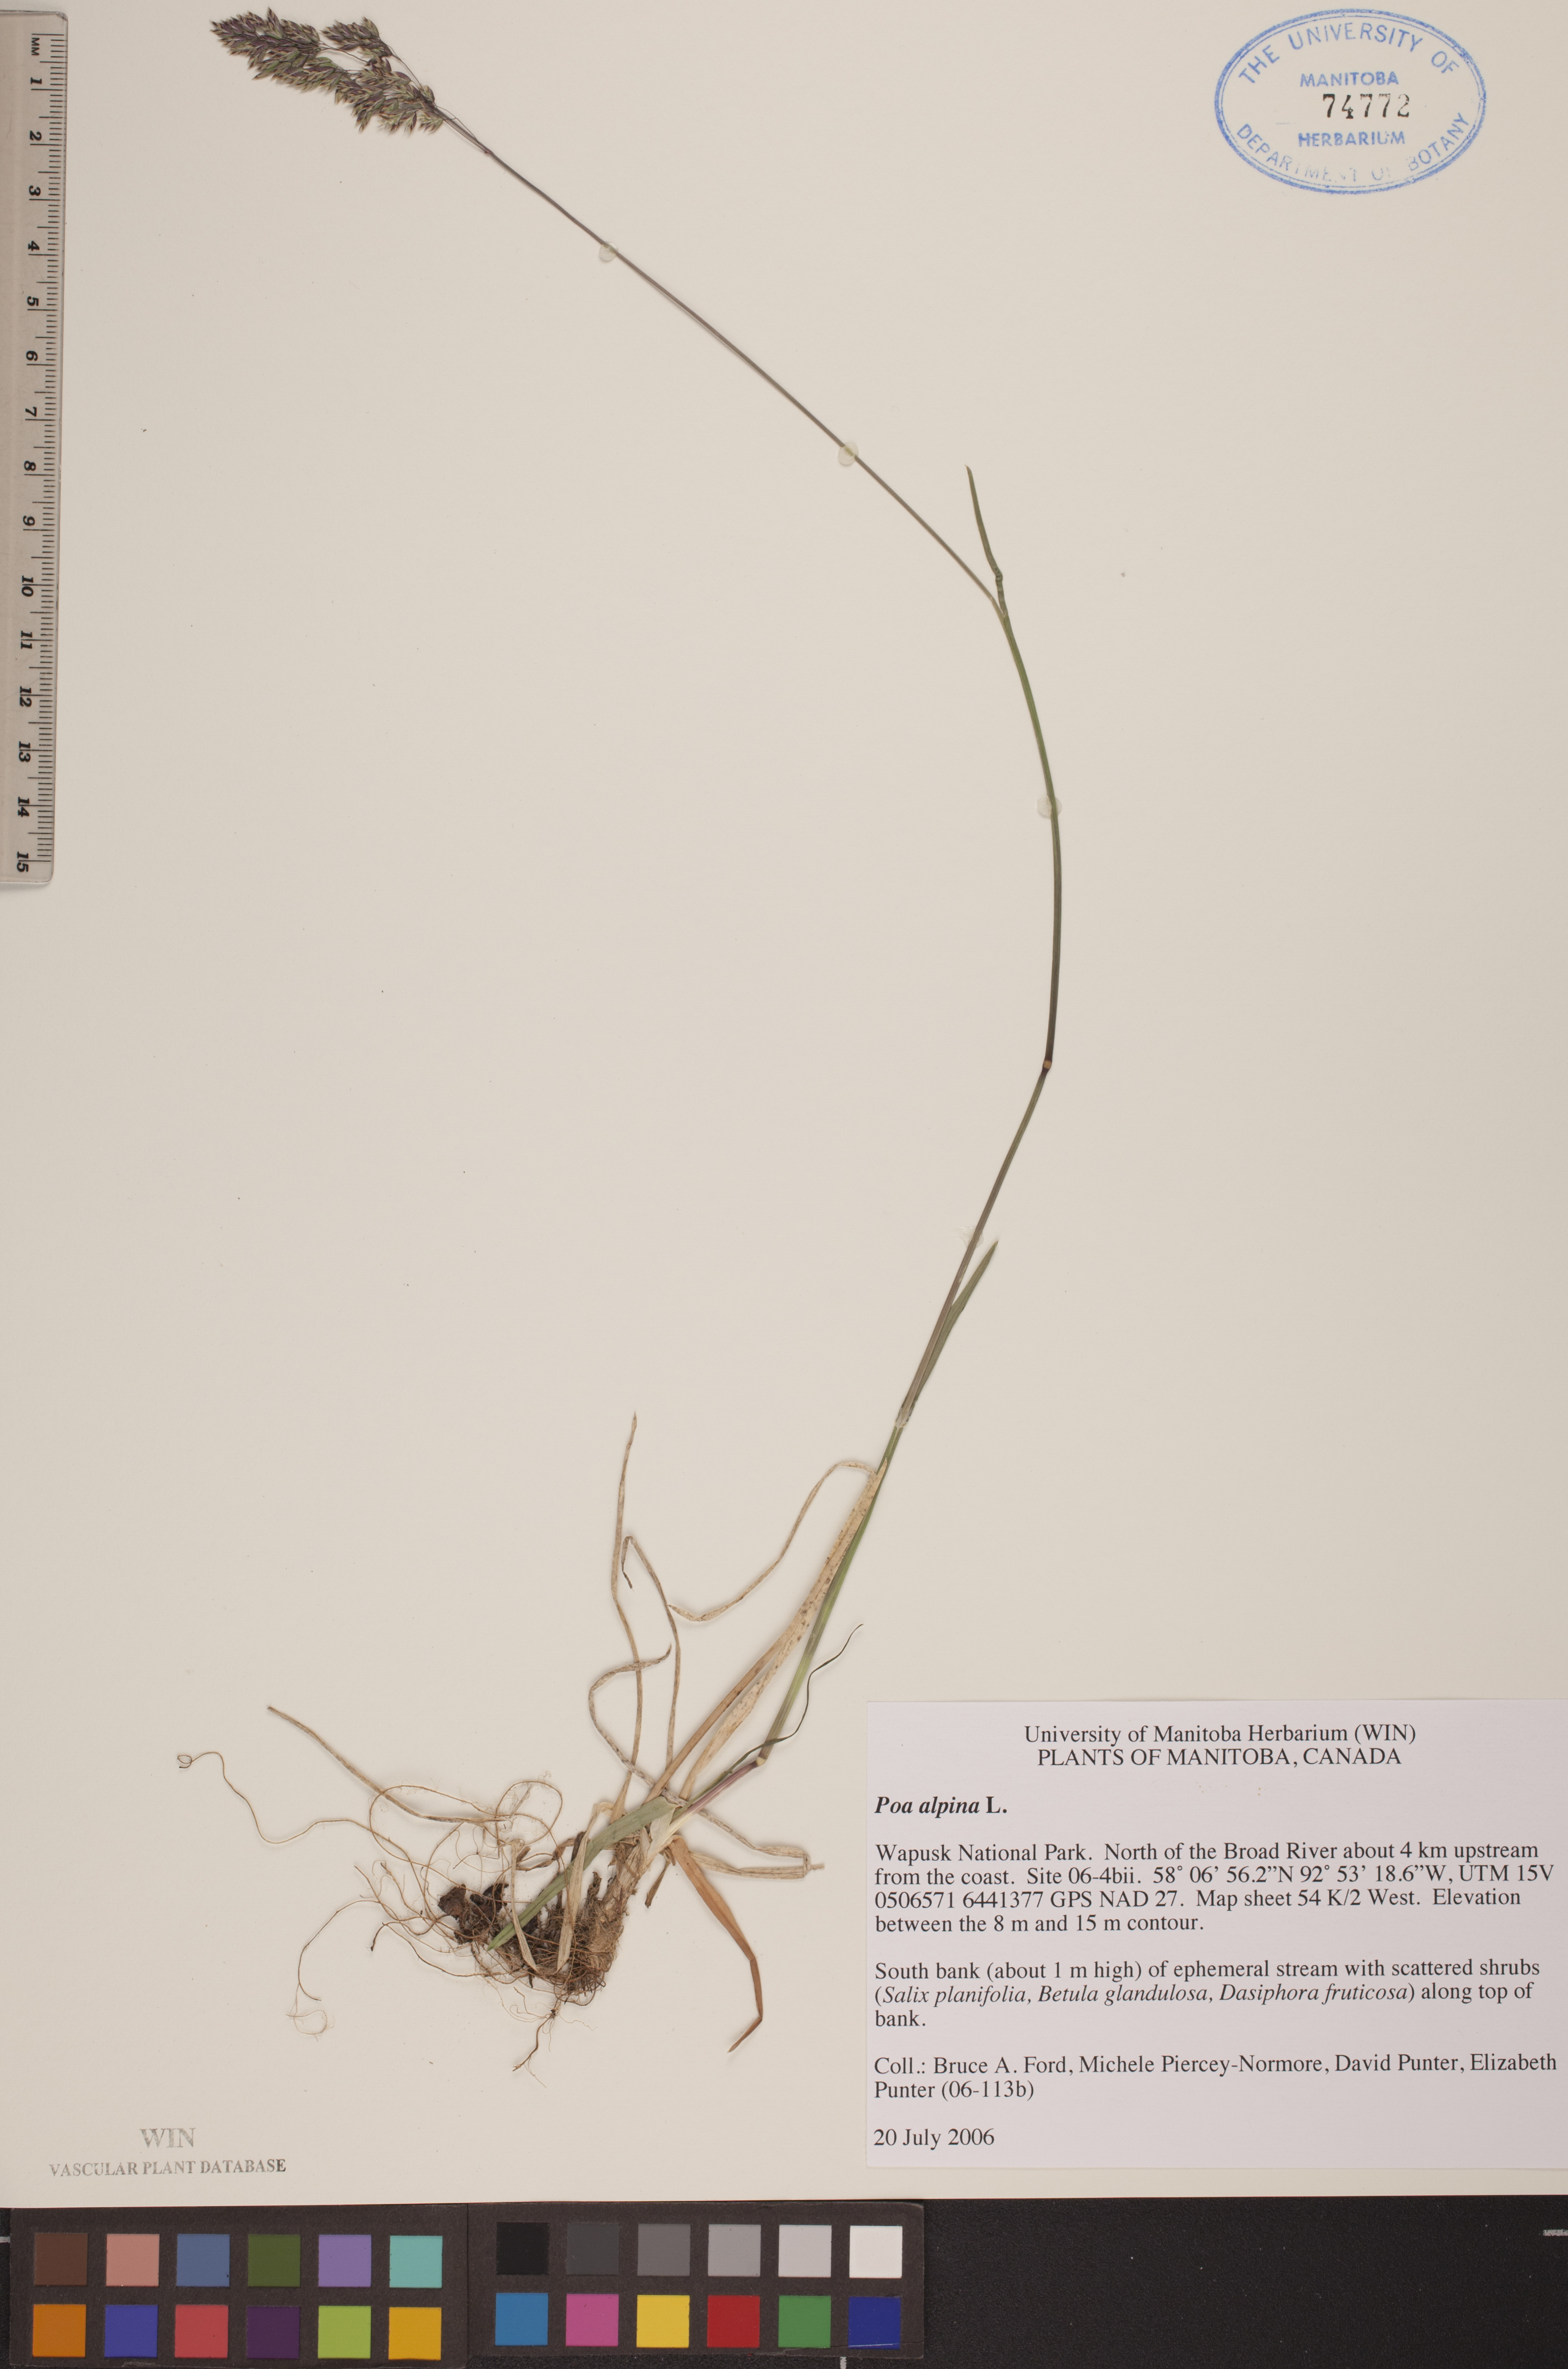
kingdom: Plantae
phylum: Tracheophyta
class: Liliopsida
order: Poales
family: Poaceae
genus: Poa
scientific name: Poa alpina
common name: Alpine bluegrass
